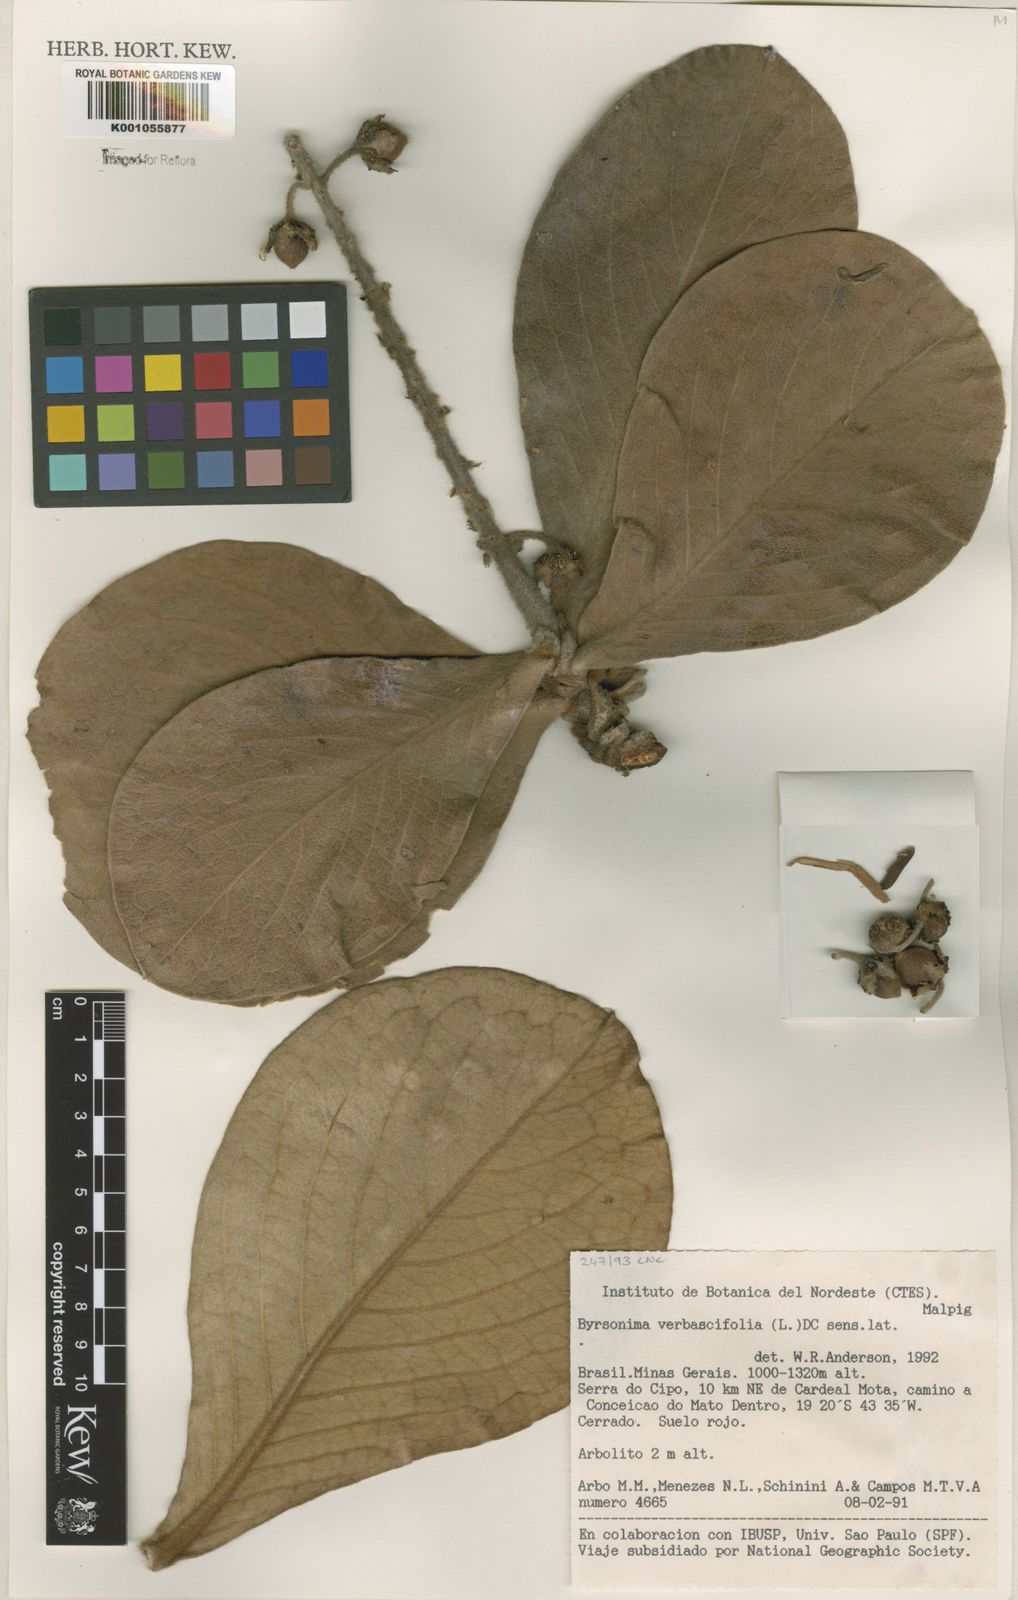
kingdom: Plantae
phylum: Tracheophyta
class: Magnoliopsida
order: Malpighiales
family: Malpighiaceae
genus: Byrsonima
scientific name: Byrsonima verbascifolia
